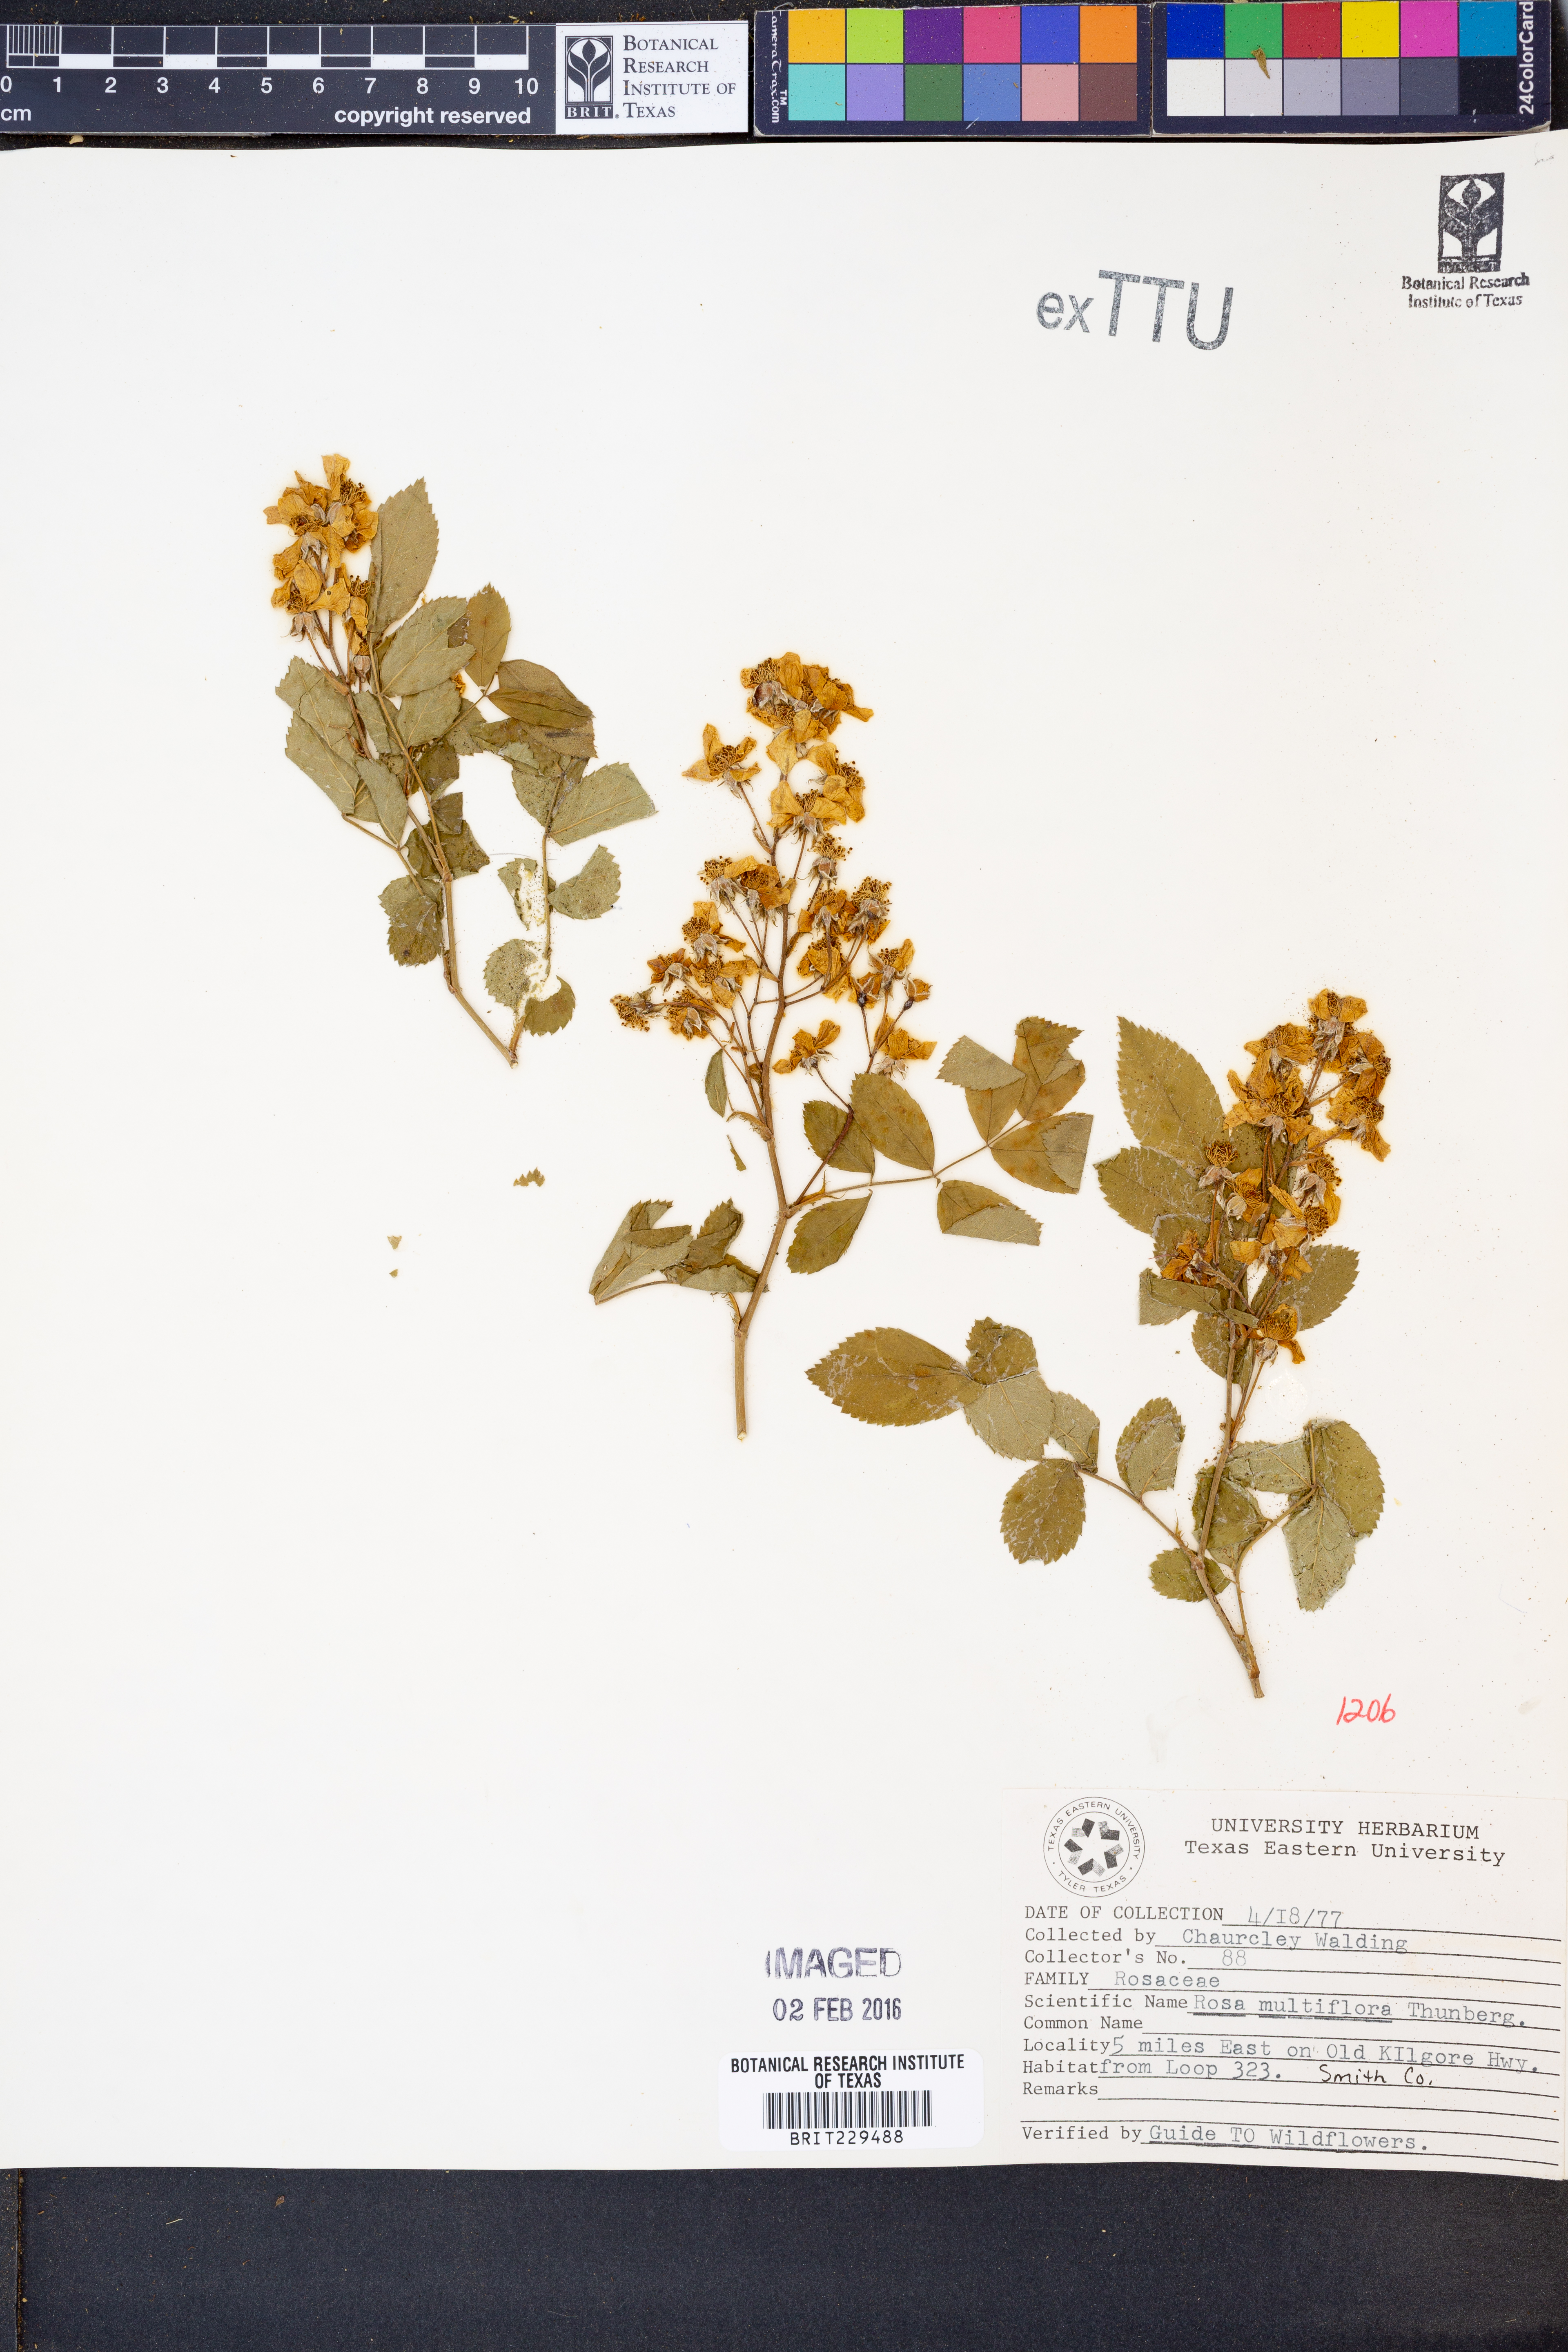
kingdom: Plantae
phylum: Tracheophyta
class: Magnoliopsida
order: Rosales
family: Rosaceae
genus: Rosa
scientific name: Rosa multiflora
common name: Multiflora rose
